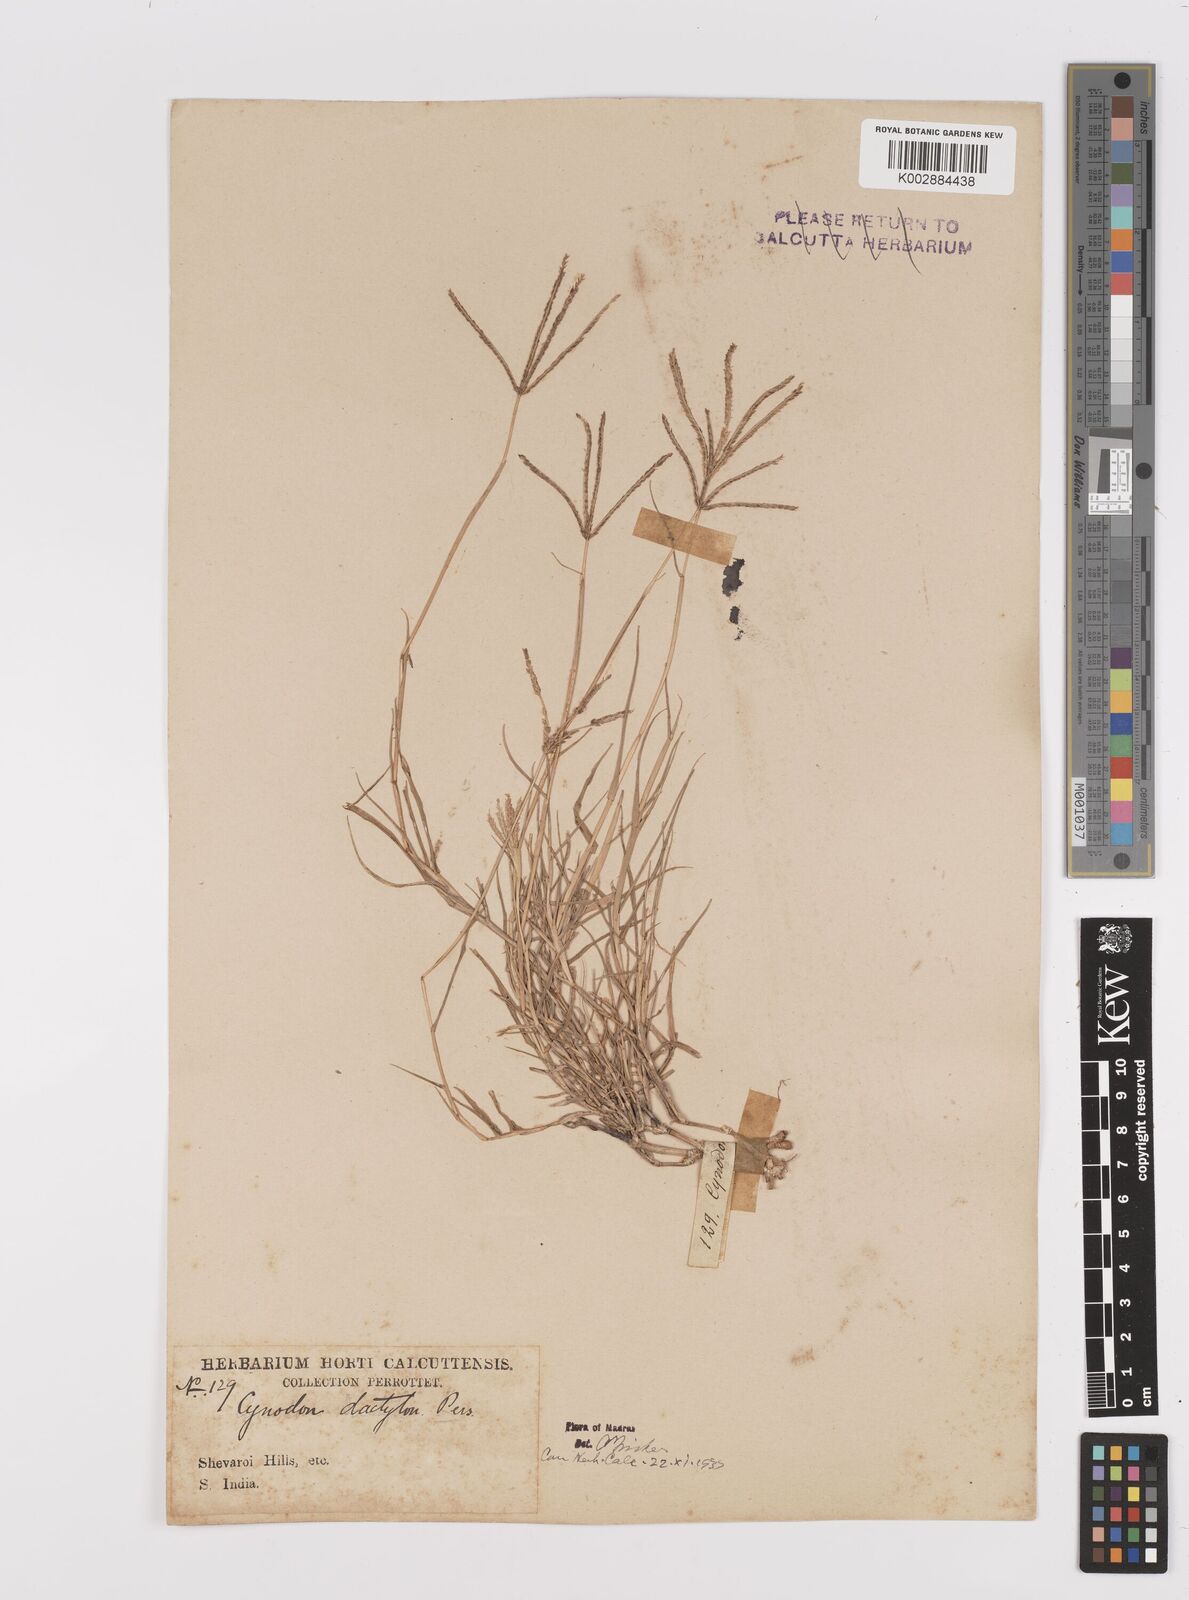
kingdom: Plantae
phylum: Tracheophyta
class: Liliopsida
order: Poales
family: Poaceae
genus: Cynodon
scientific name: Cynodon dactylon
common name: Bermuda grass
